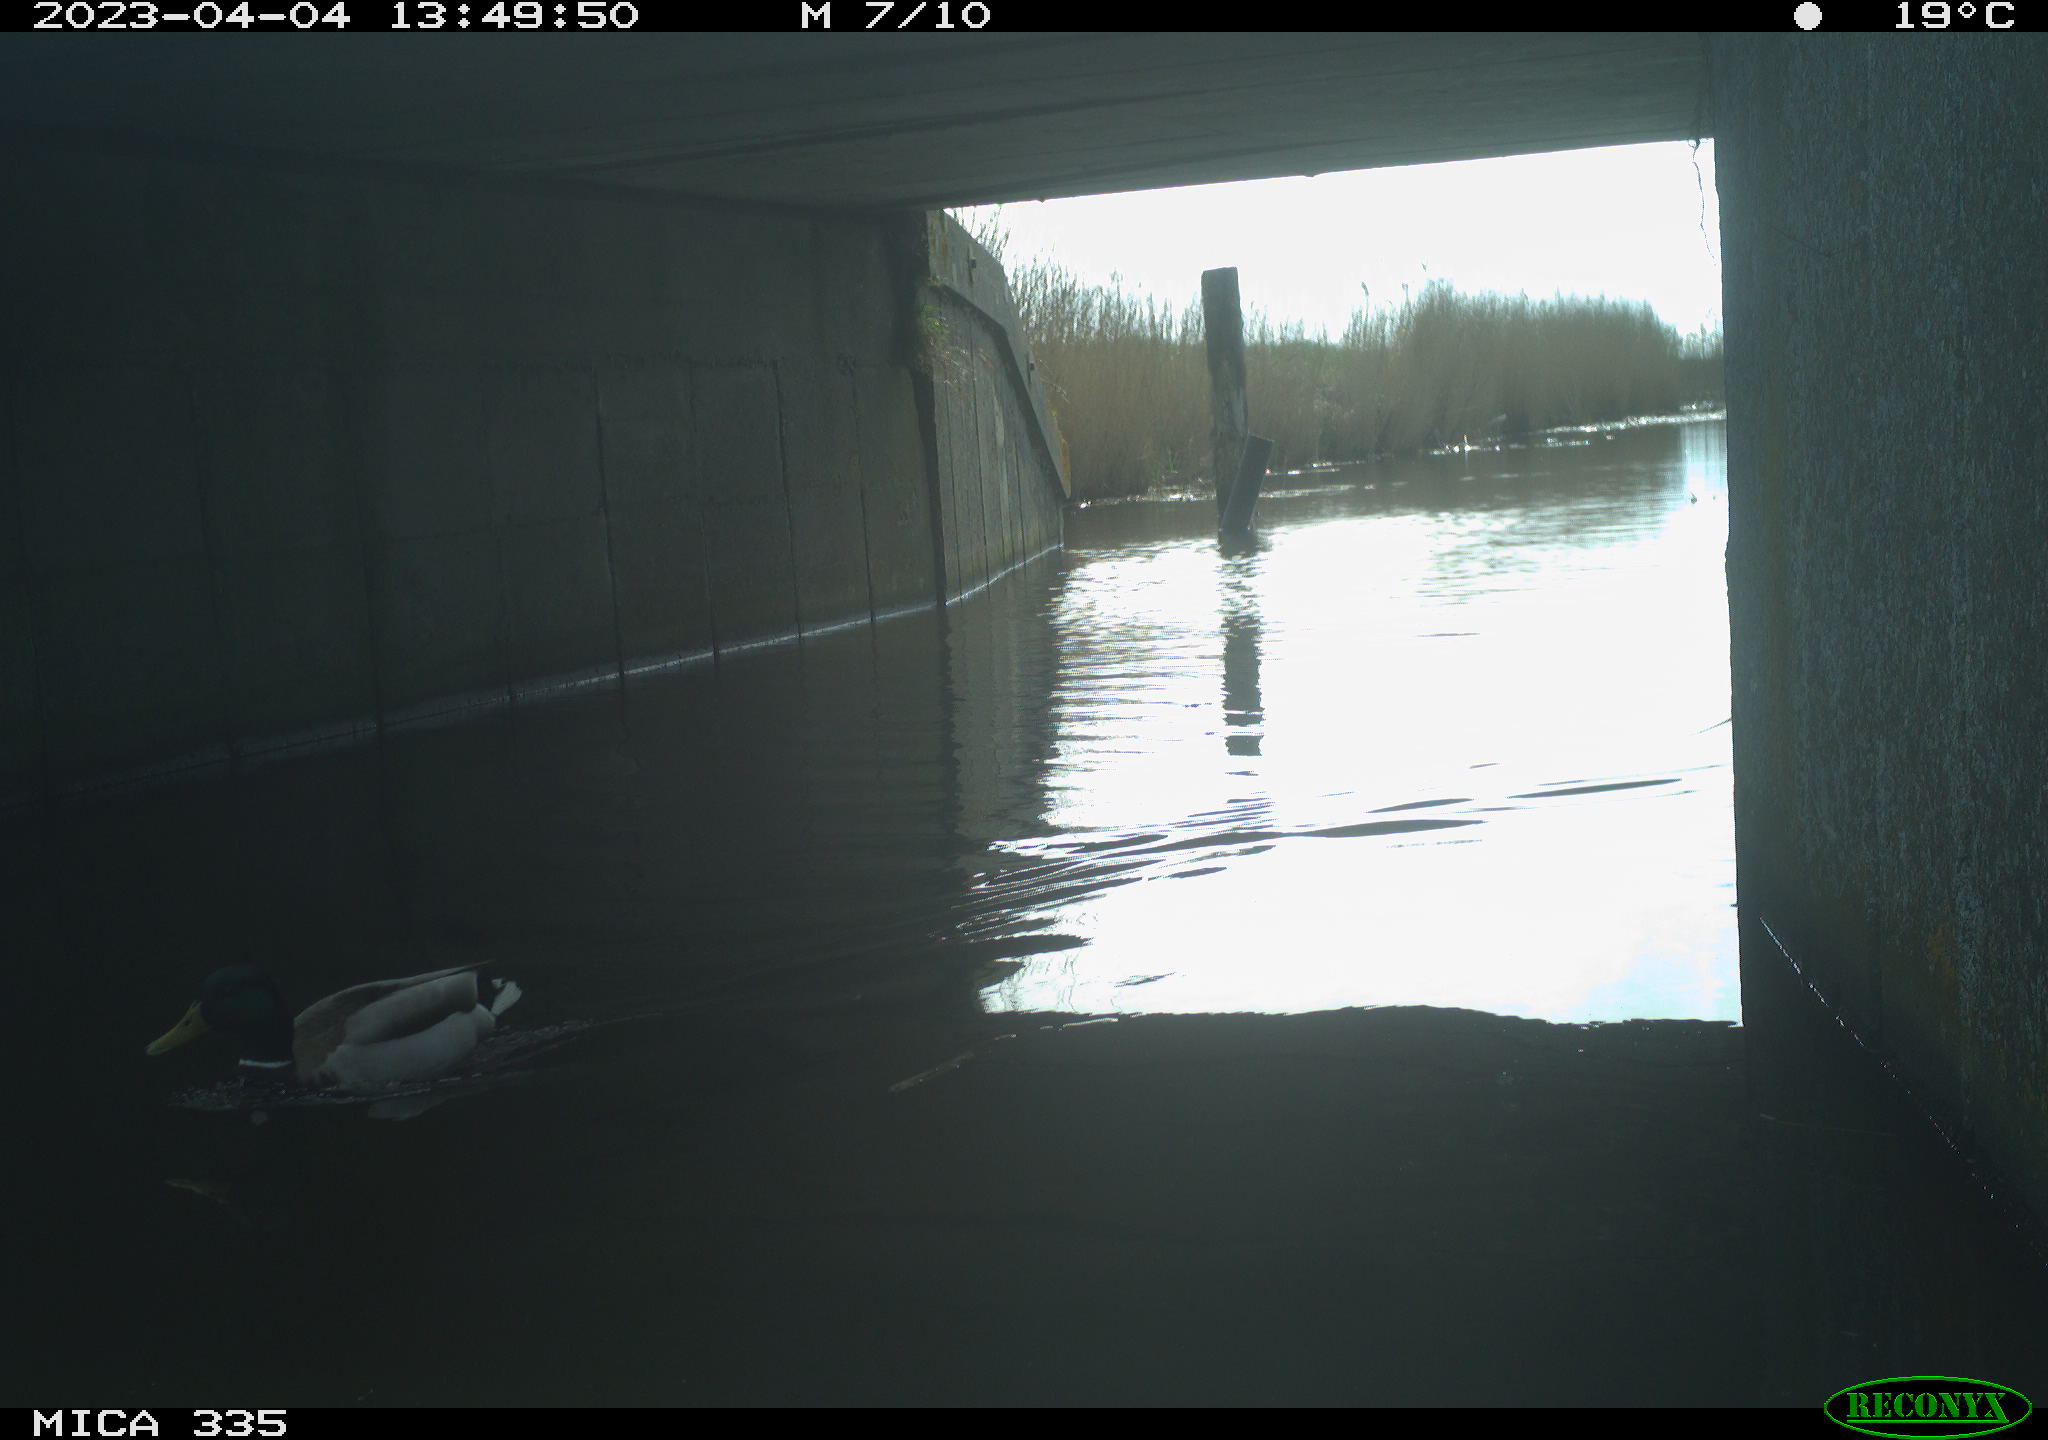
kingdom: Animalia
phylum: Chordata
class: Aves
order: Anseriformes
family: Anatidae
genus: Anas
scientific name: Anas
